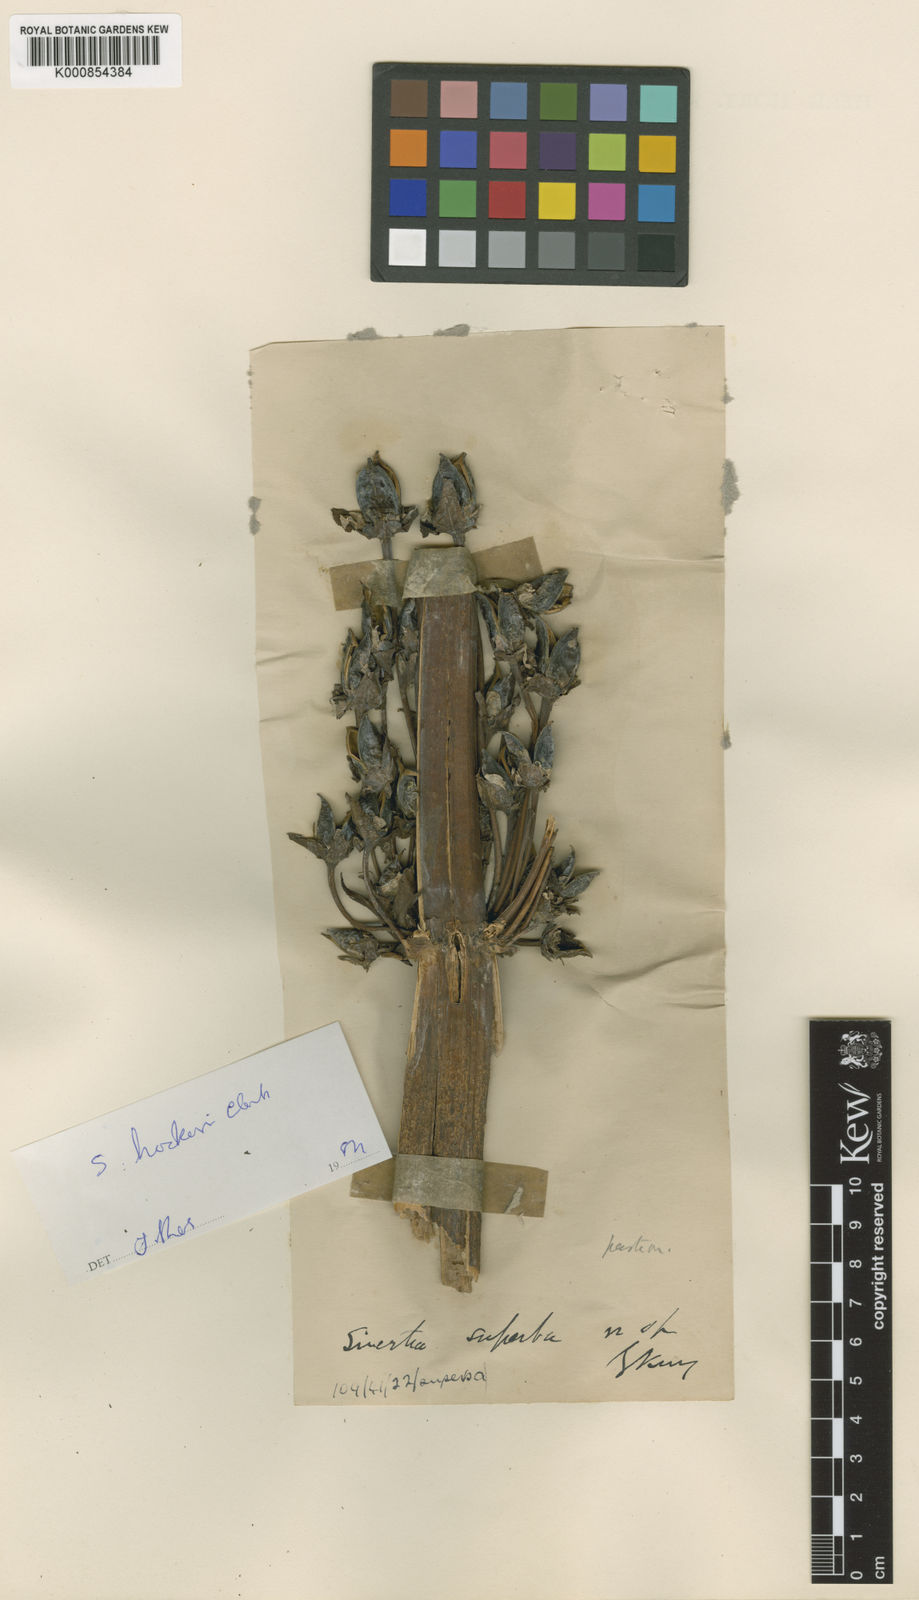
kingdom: Plantae
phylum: Tracheophyta
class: Magnoliopsida
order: Gentianales
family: Gentianaceae
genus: Swertia
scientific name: Swertia hookeri
